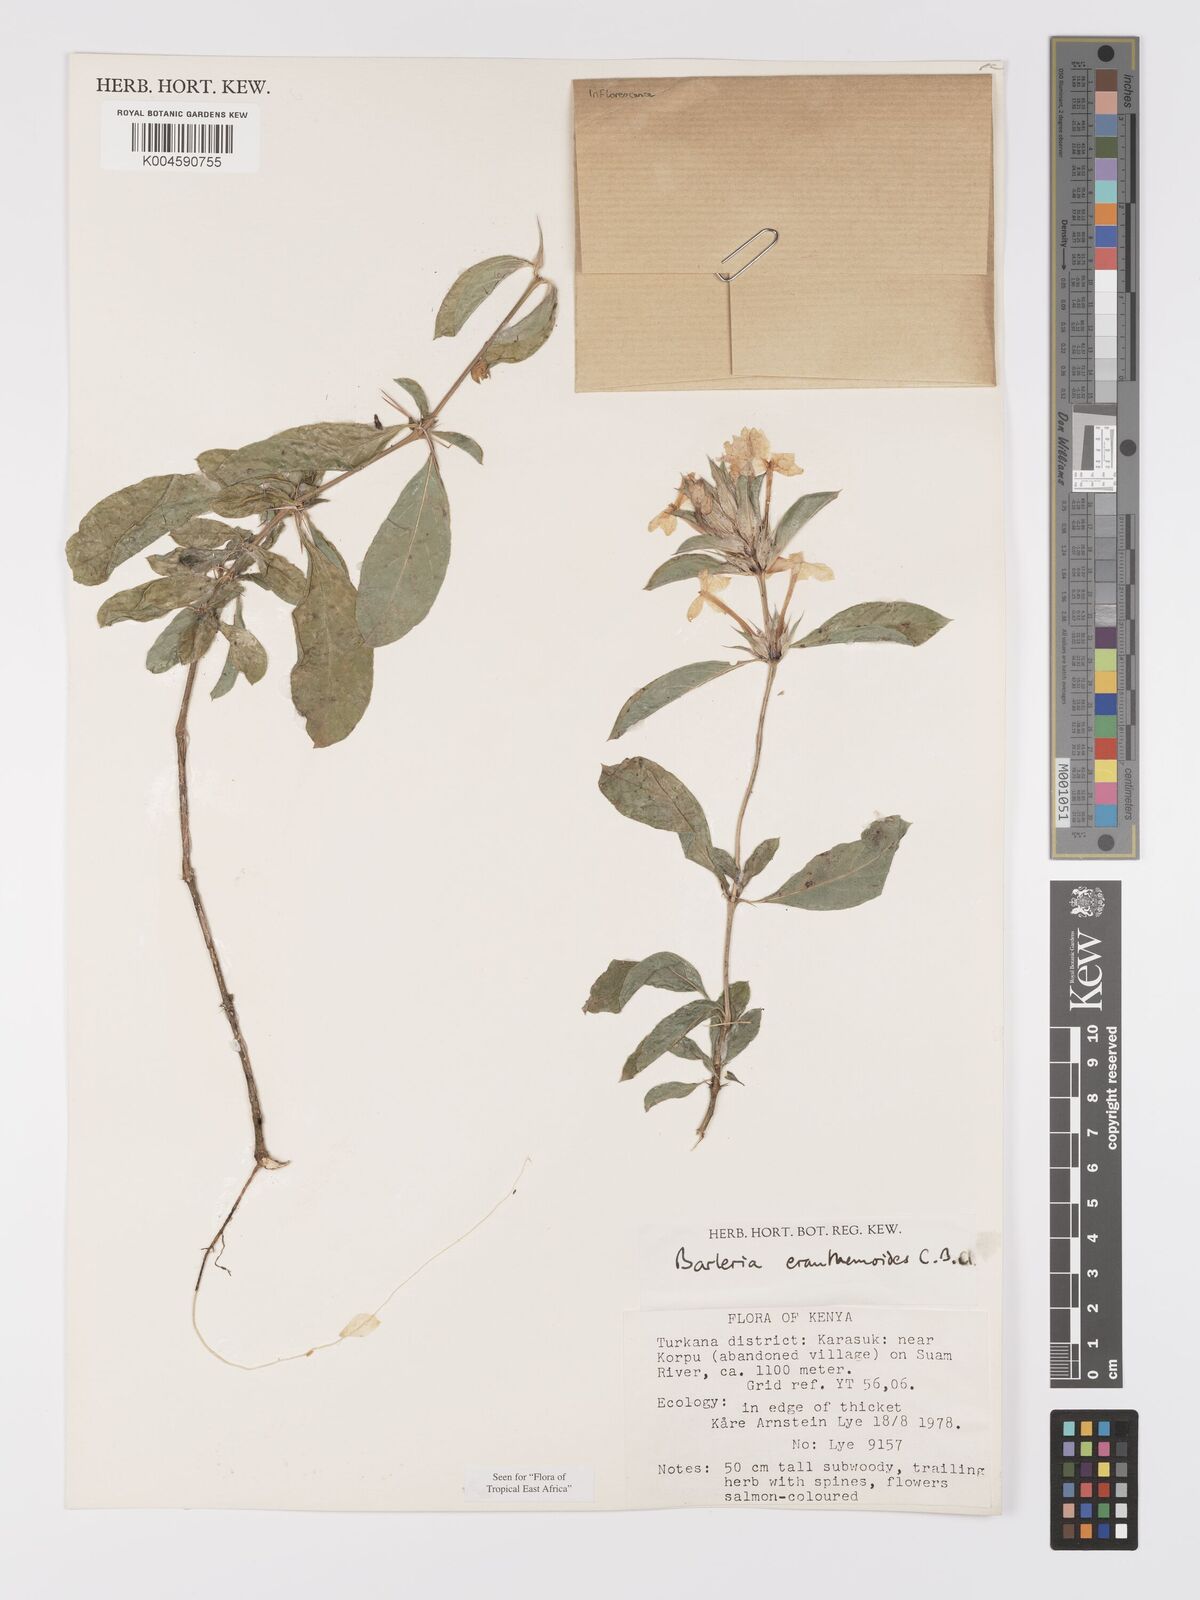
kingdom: Plantae
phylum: Tracheophyta
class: Magnoliopsida
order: Lamiales
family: Acanthaceae
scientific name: Acanthaceae
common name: Acanthaceae
